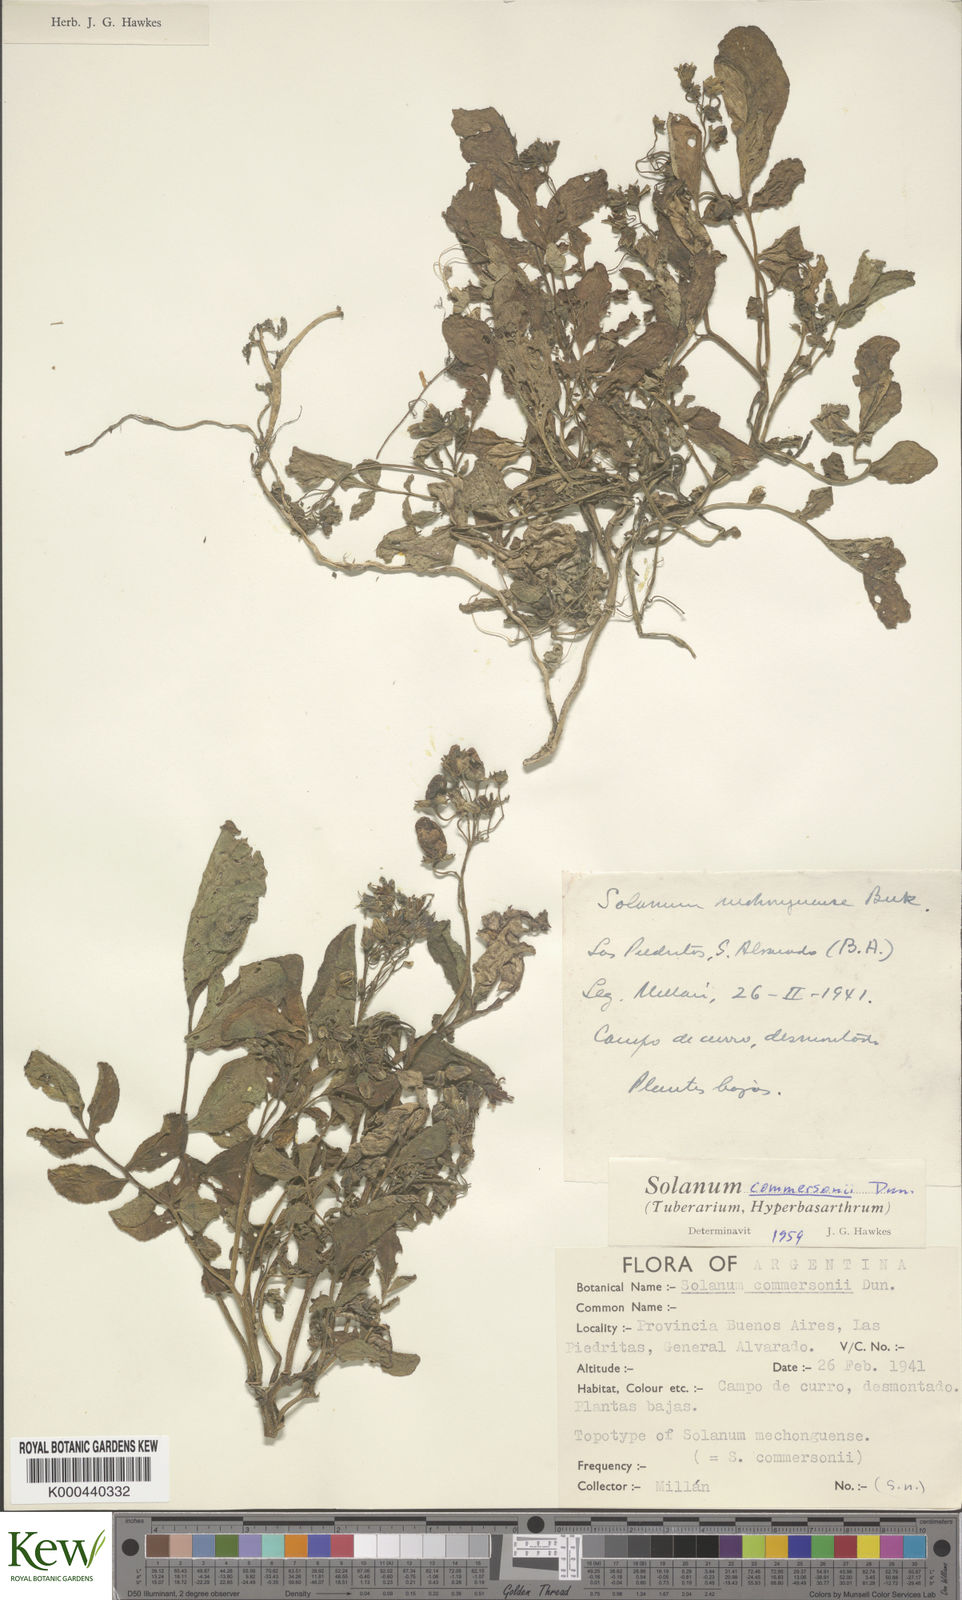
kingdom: Plantae
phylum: Tracheophyta
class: Magnoliopsida
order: Solanales
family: Solanaceae
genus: Solanum
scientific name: Solanum commersonii
